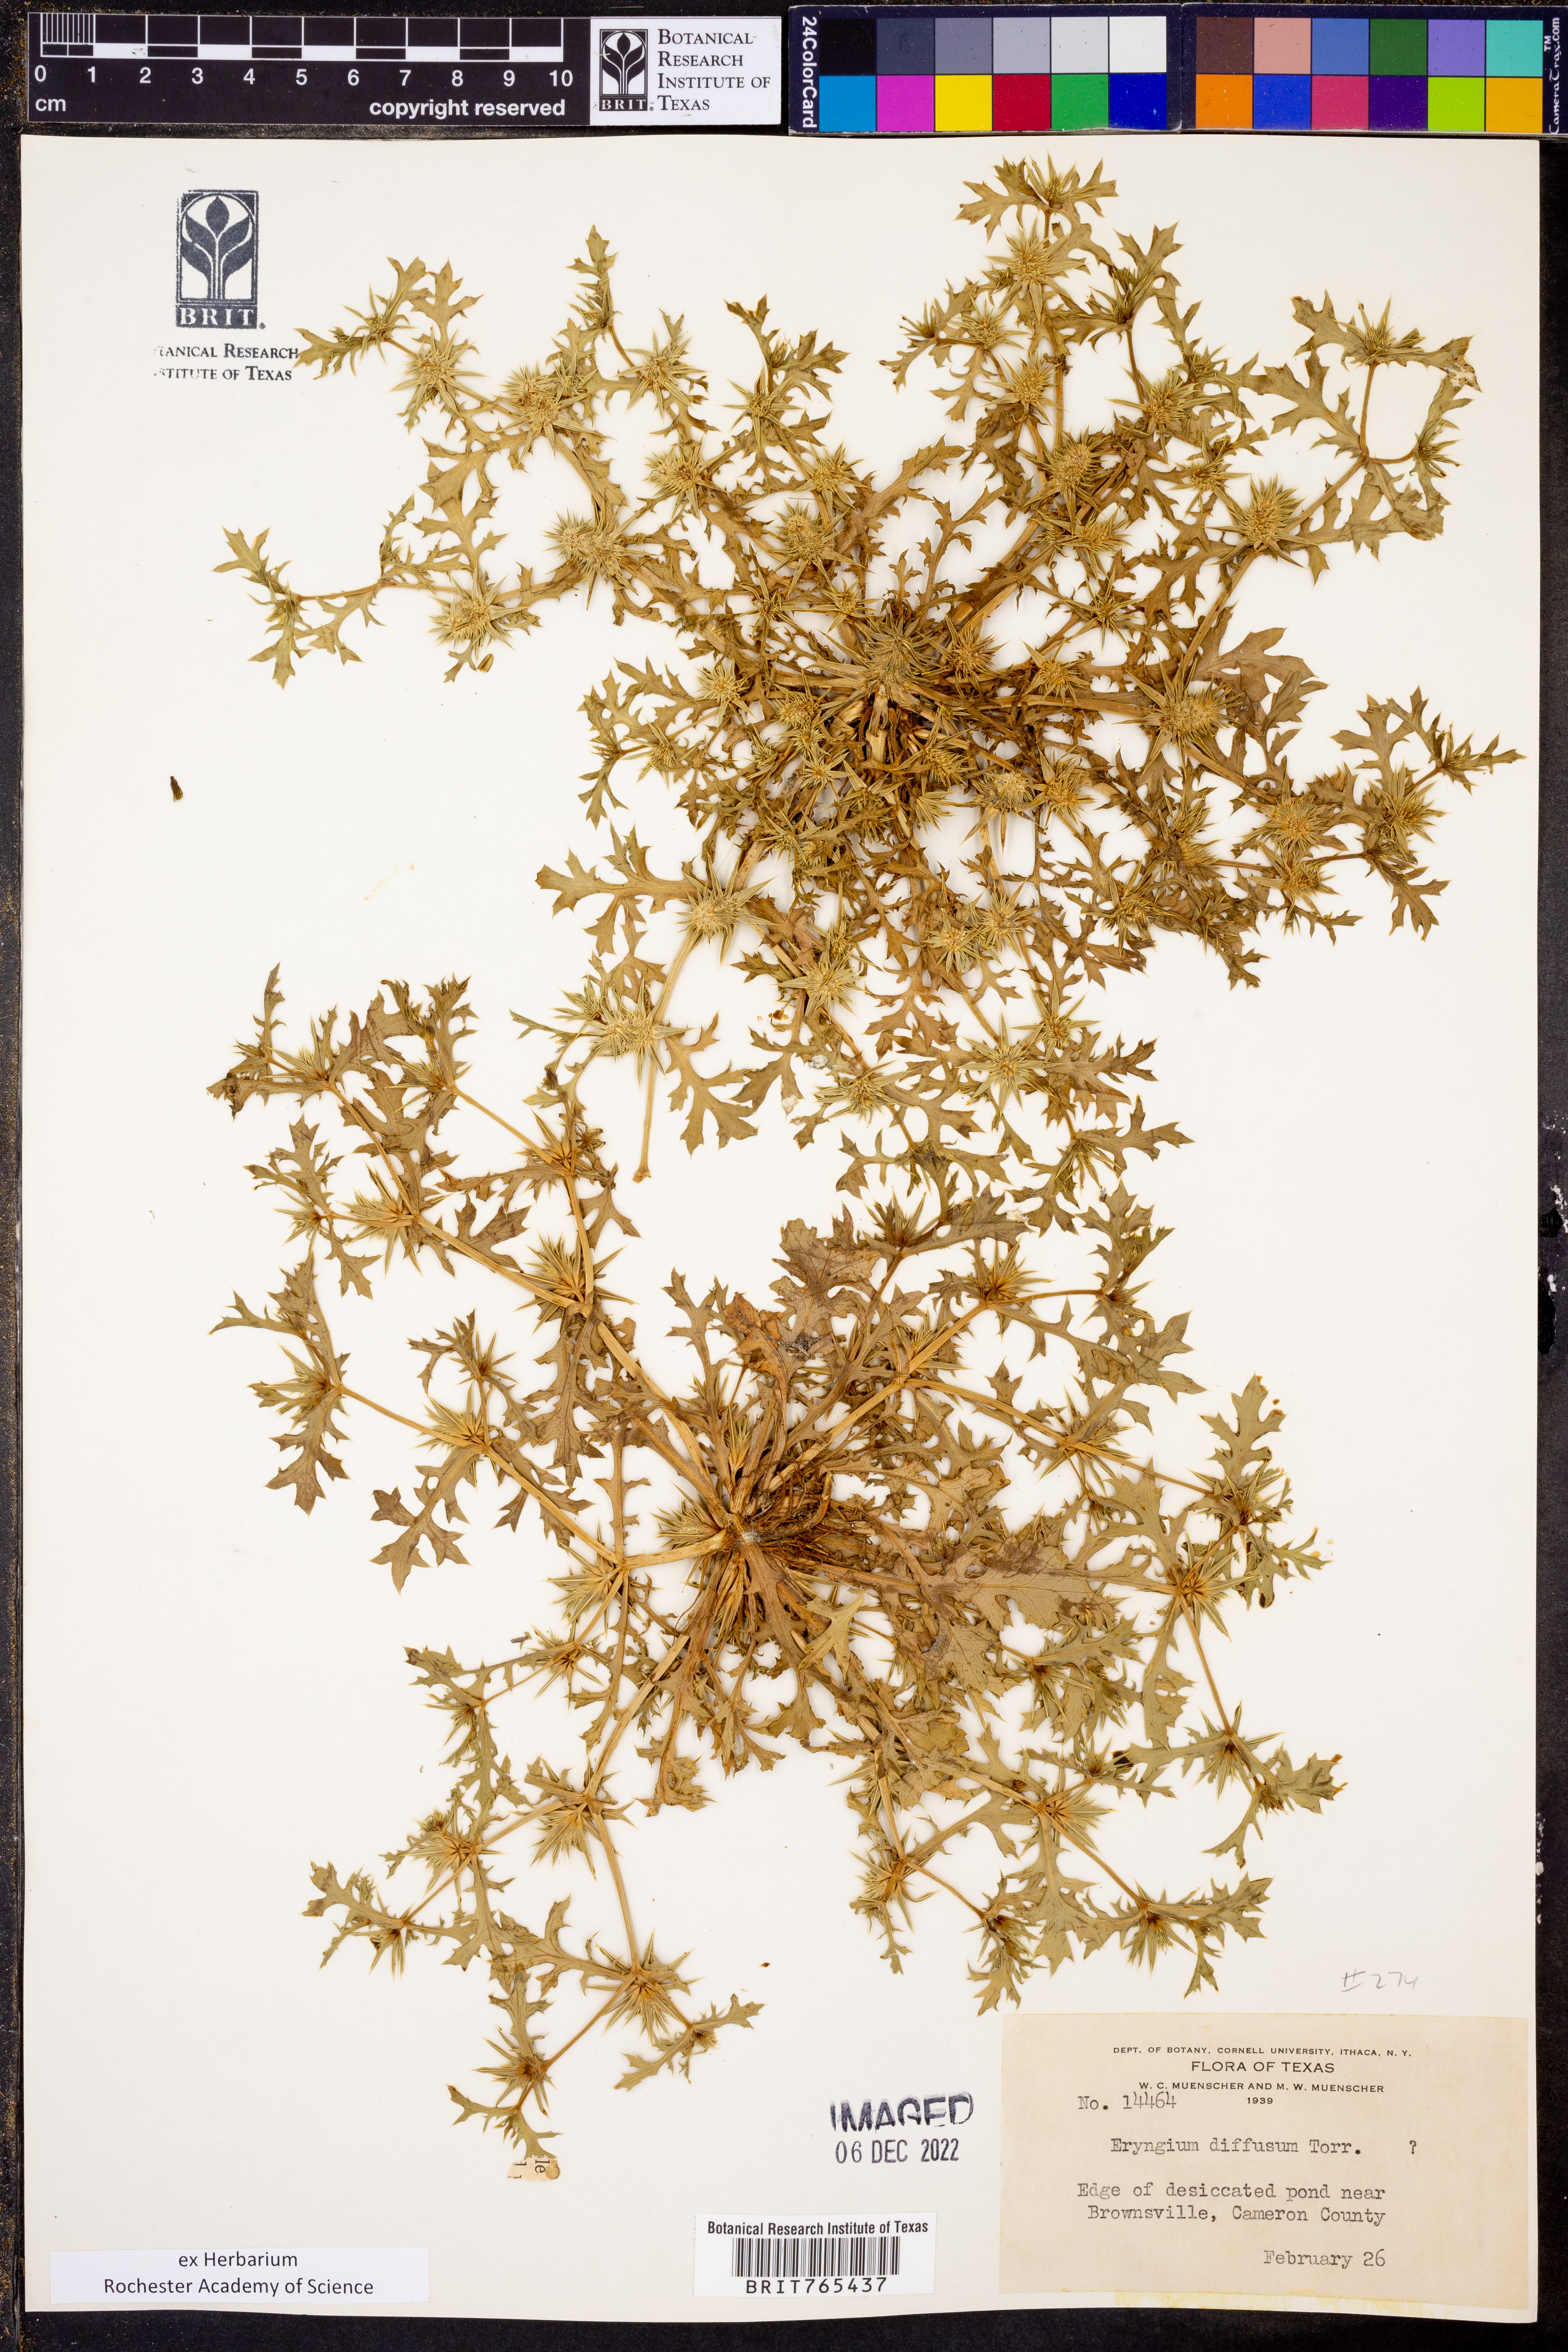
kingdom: Plantae
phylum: Tracheophyta
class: Magnoliopsida
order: Apiales
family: Apiaceae
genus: Eryngium
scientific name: Eryngium diffusum
